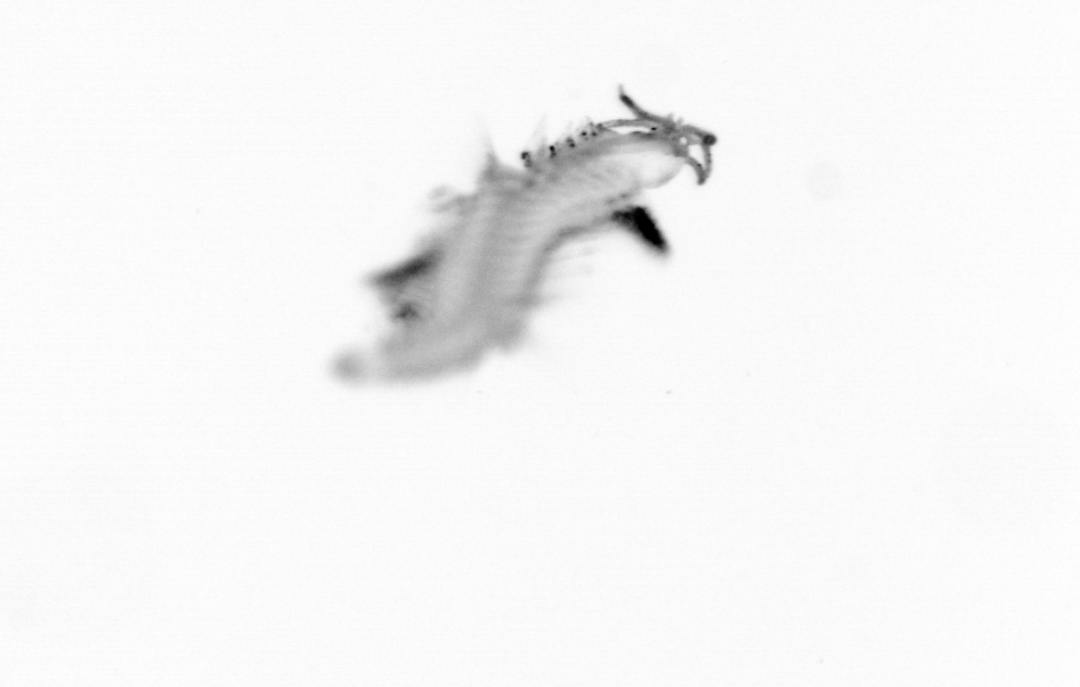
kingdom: Animalia
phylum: Annelida
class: Polychaeta
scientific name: Polychaeta
